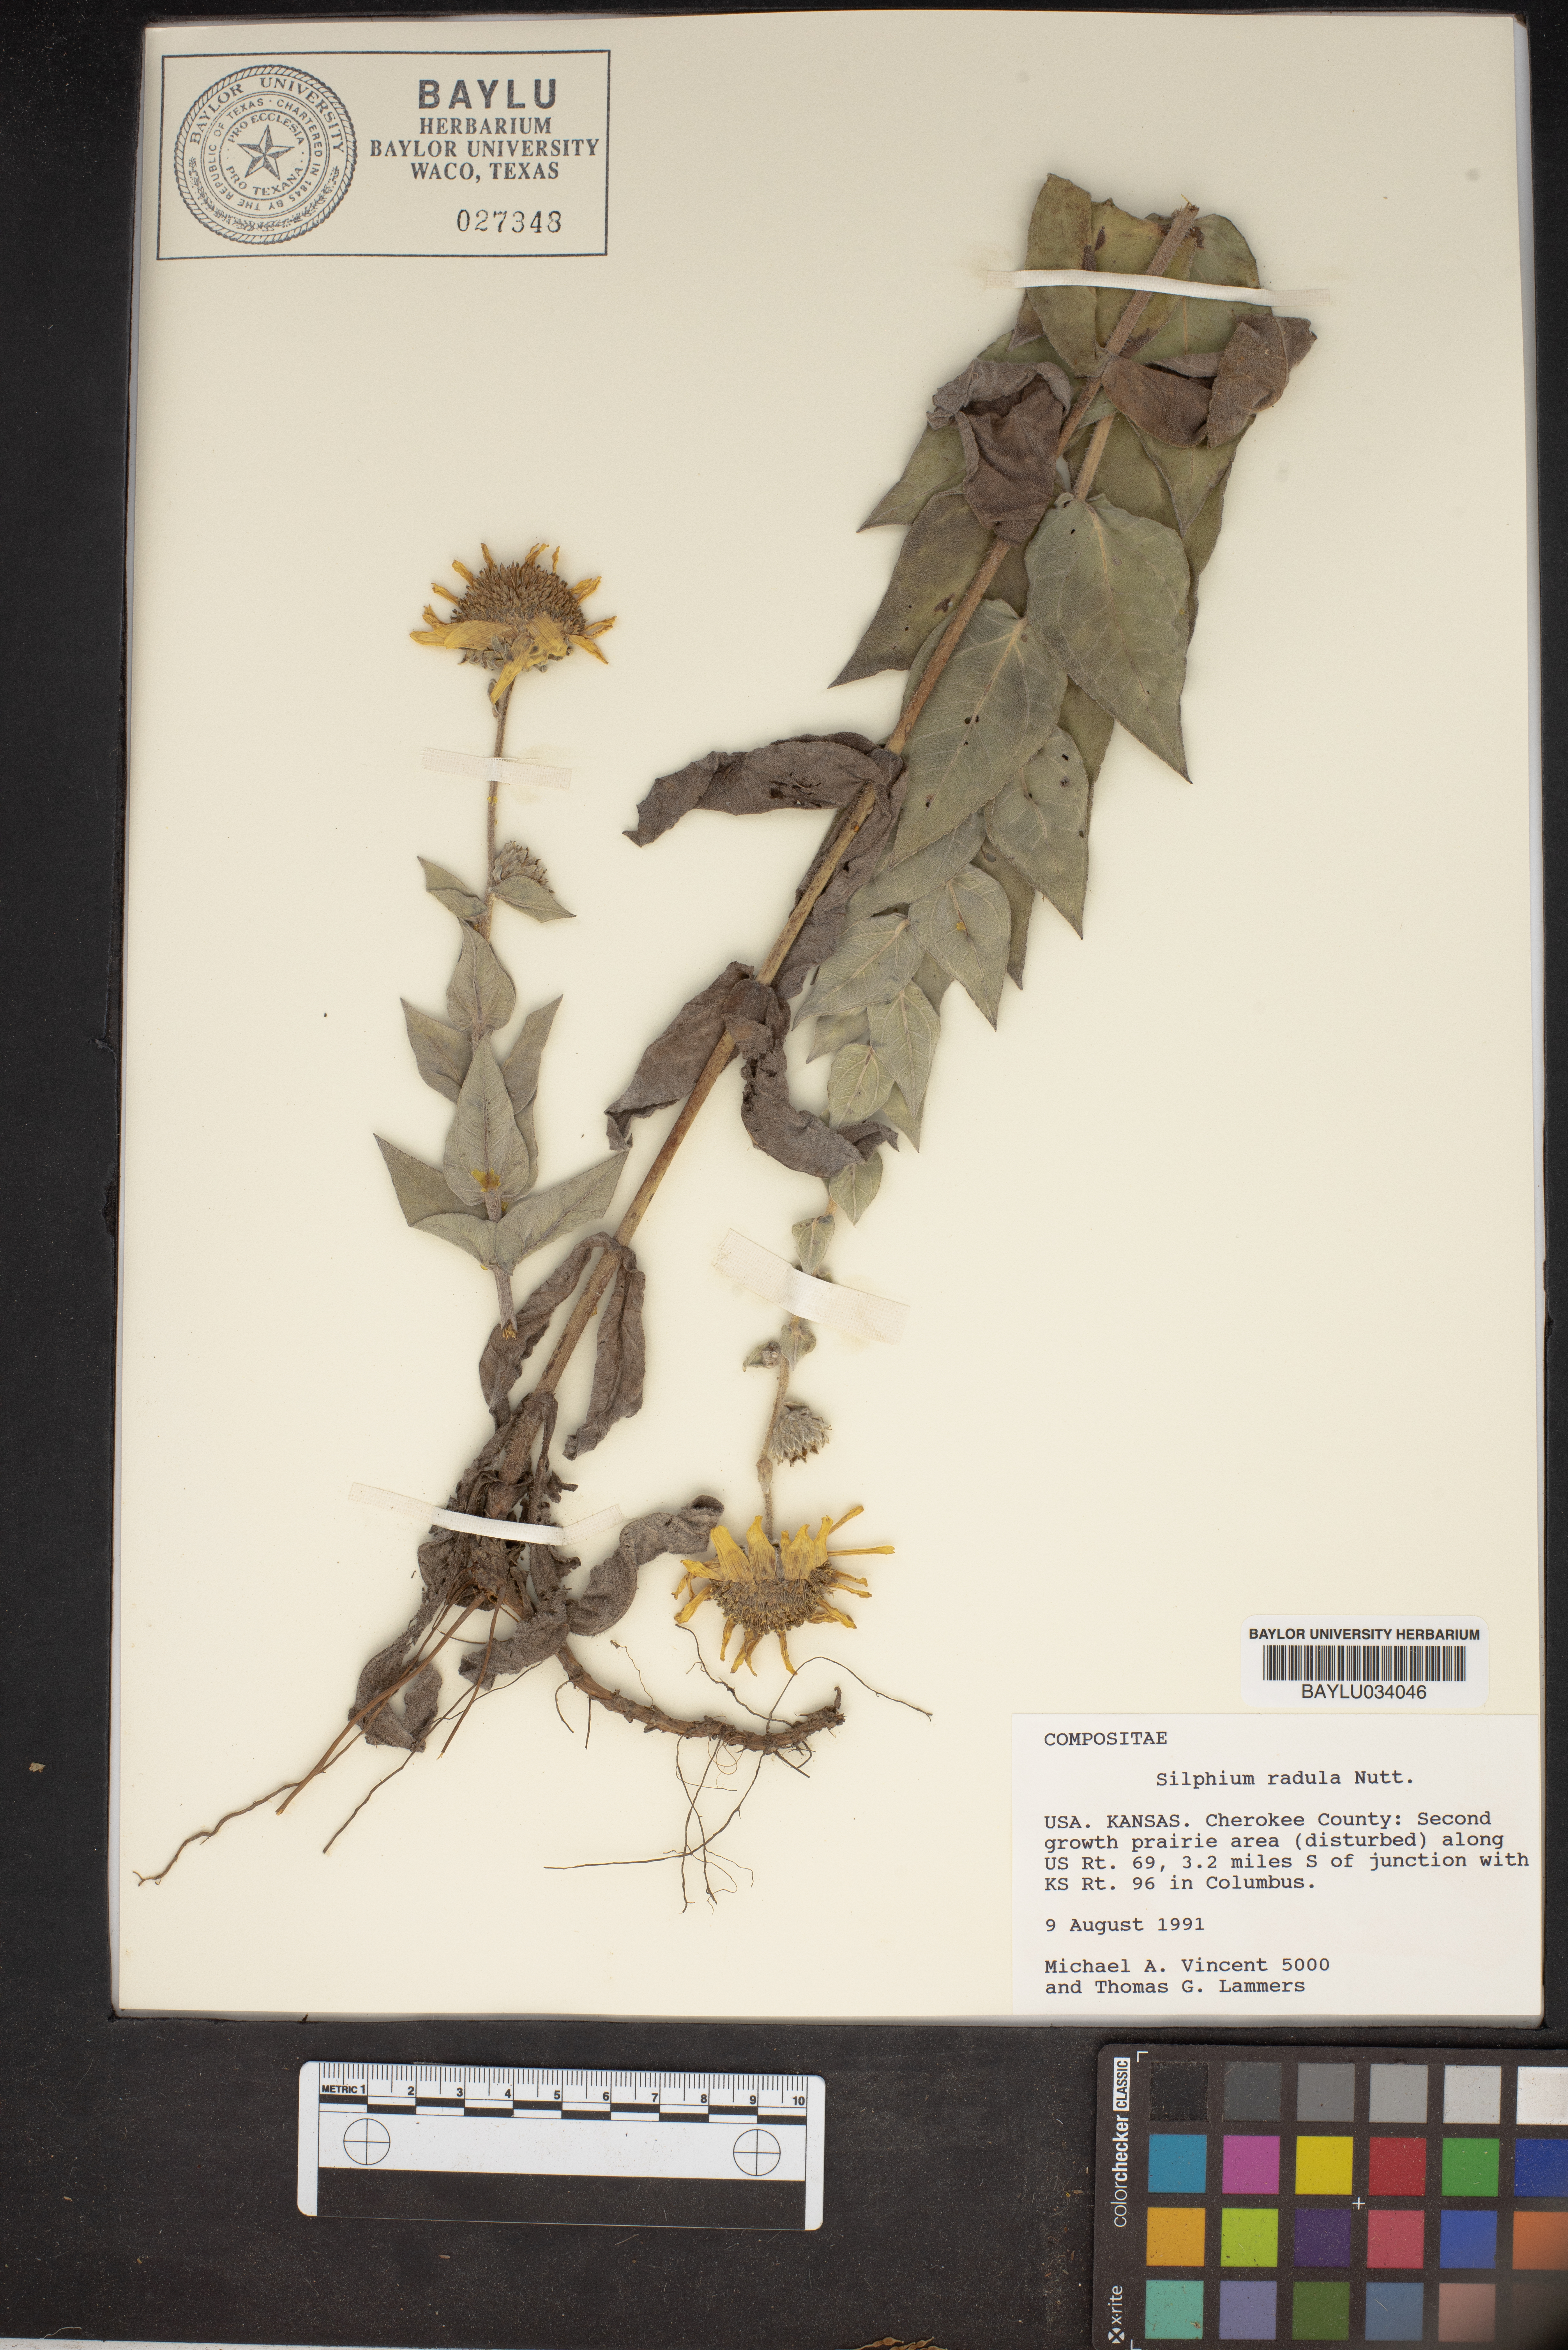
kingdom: Plantae
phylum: Tracheophyta
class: Magnoliopsida
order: Asterales
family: Asteraceae
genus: Silphium
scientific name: Silphium radula
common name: Roughleaf rosinweed
